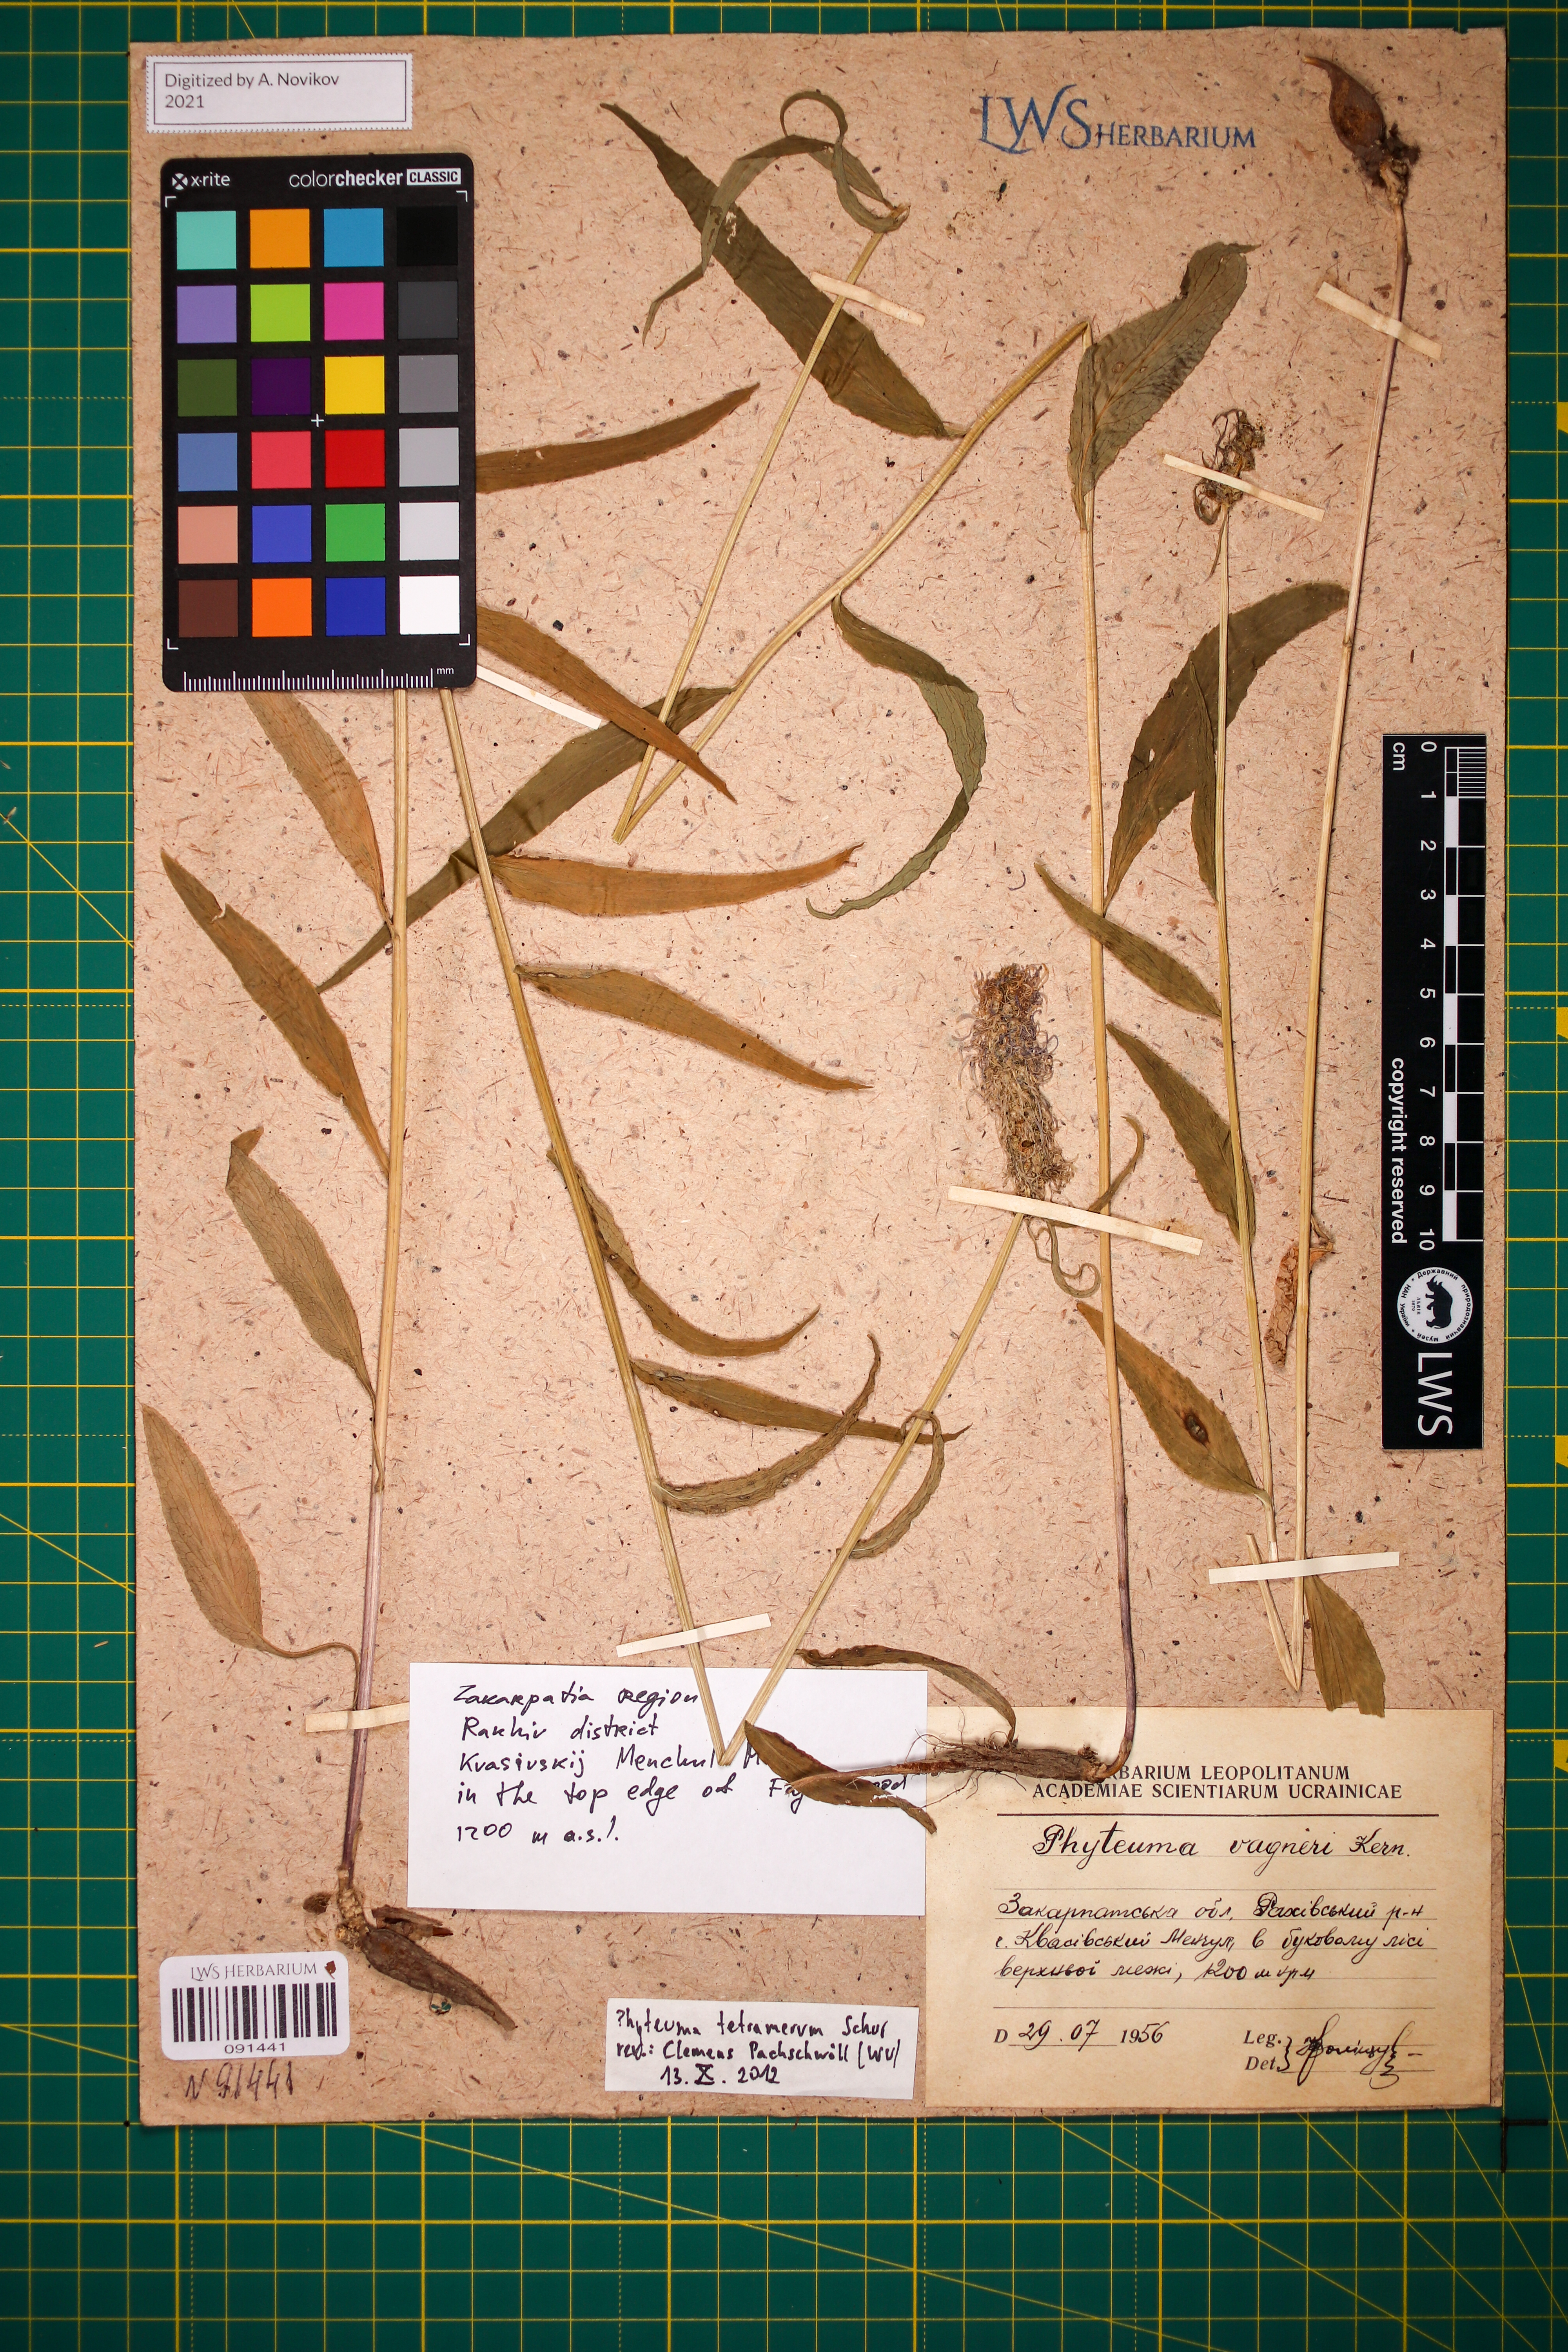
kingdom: Plantae
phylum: Tracheophyta
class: Magnoliopsida
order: Asterales
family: Campanulaceae
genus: Phyteuma
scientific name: Phyteuma tetramerum
